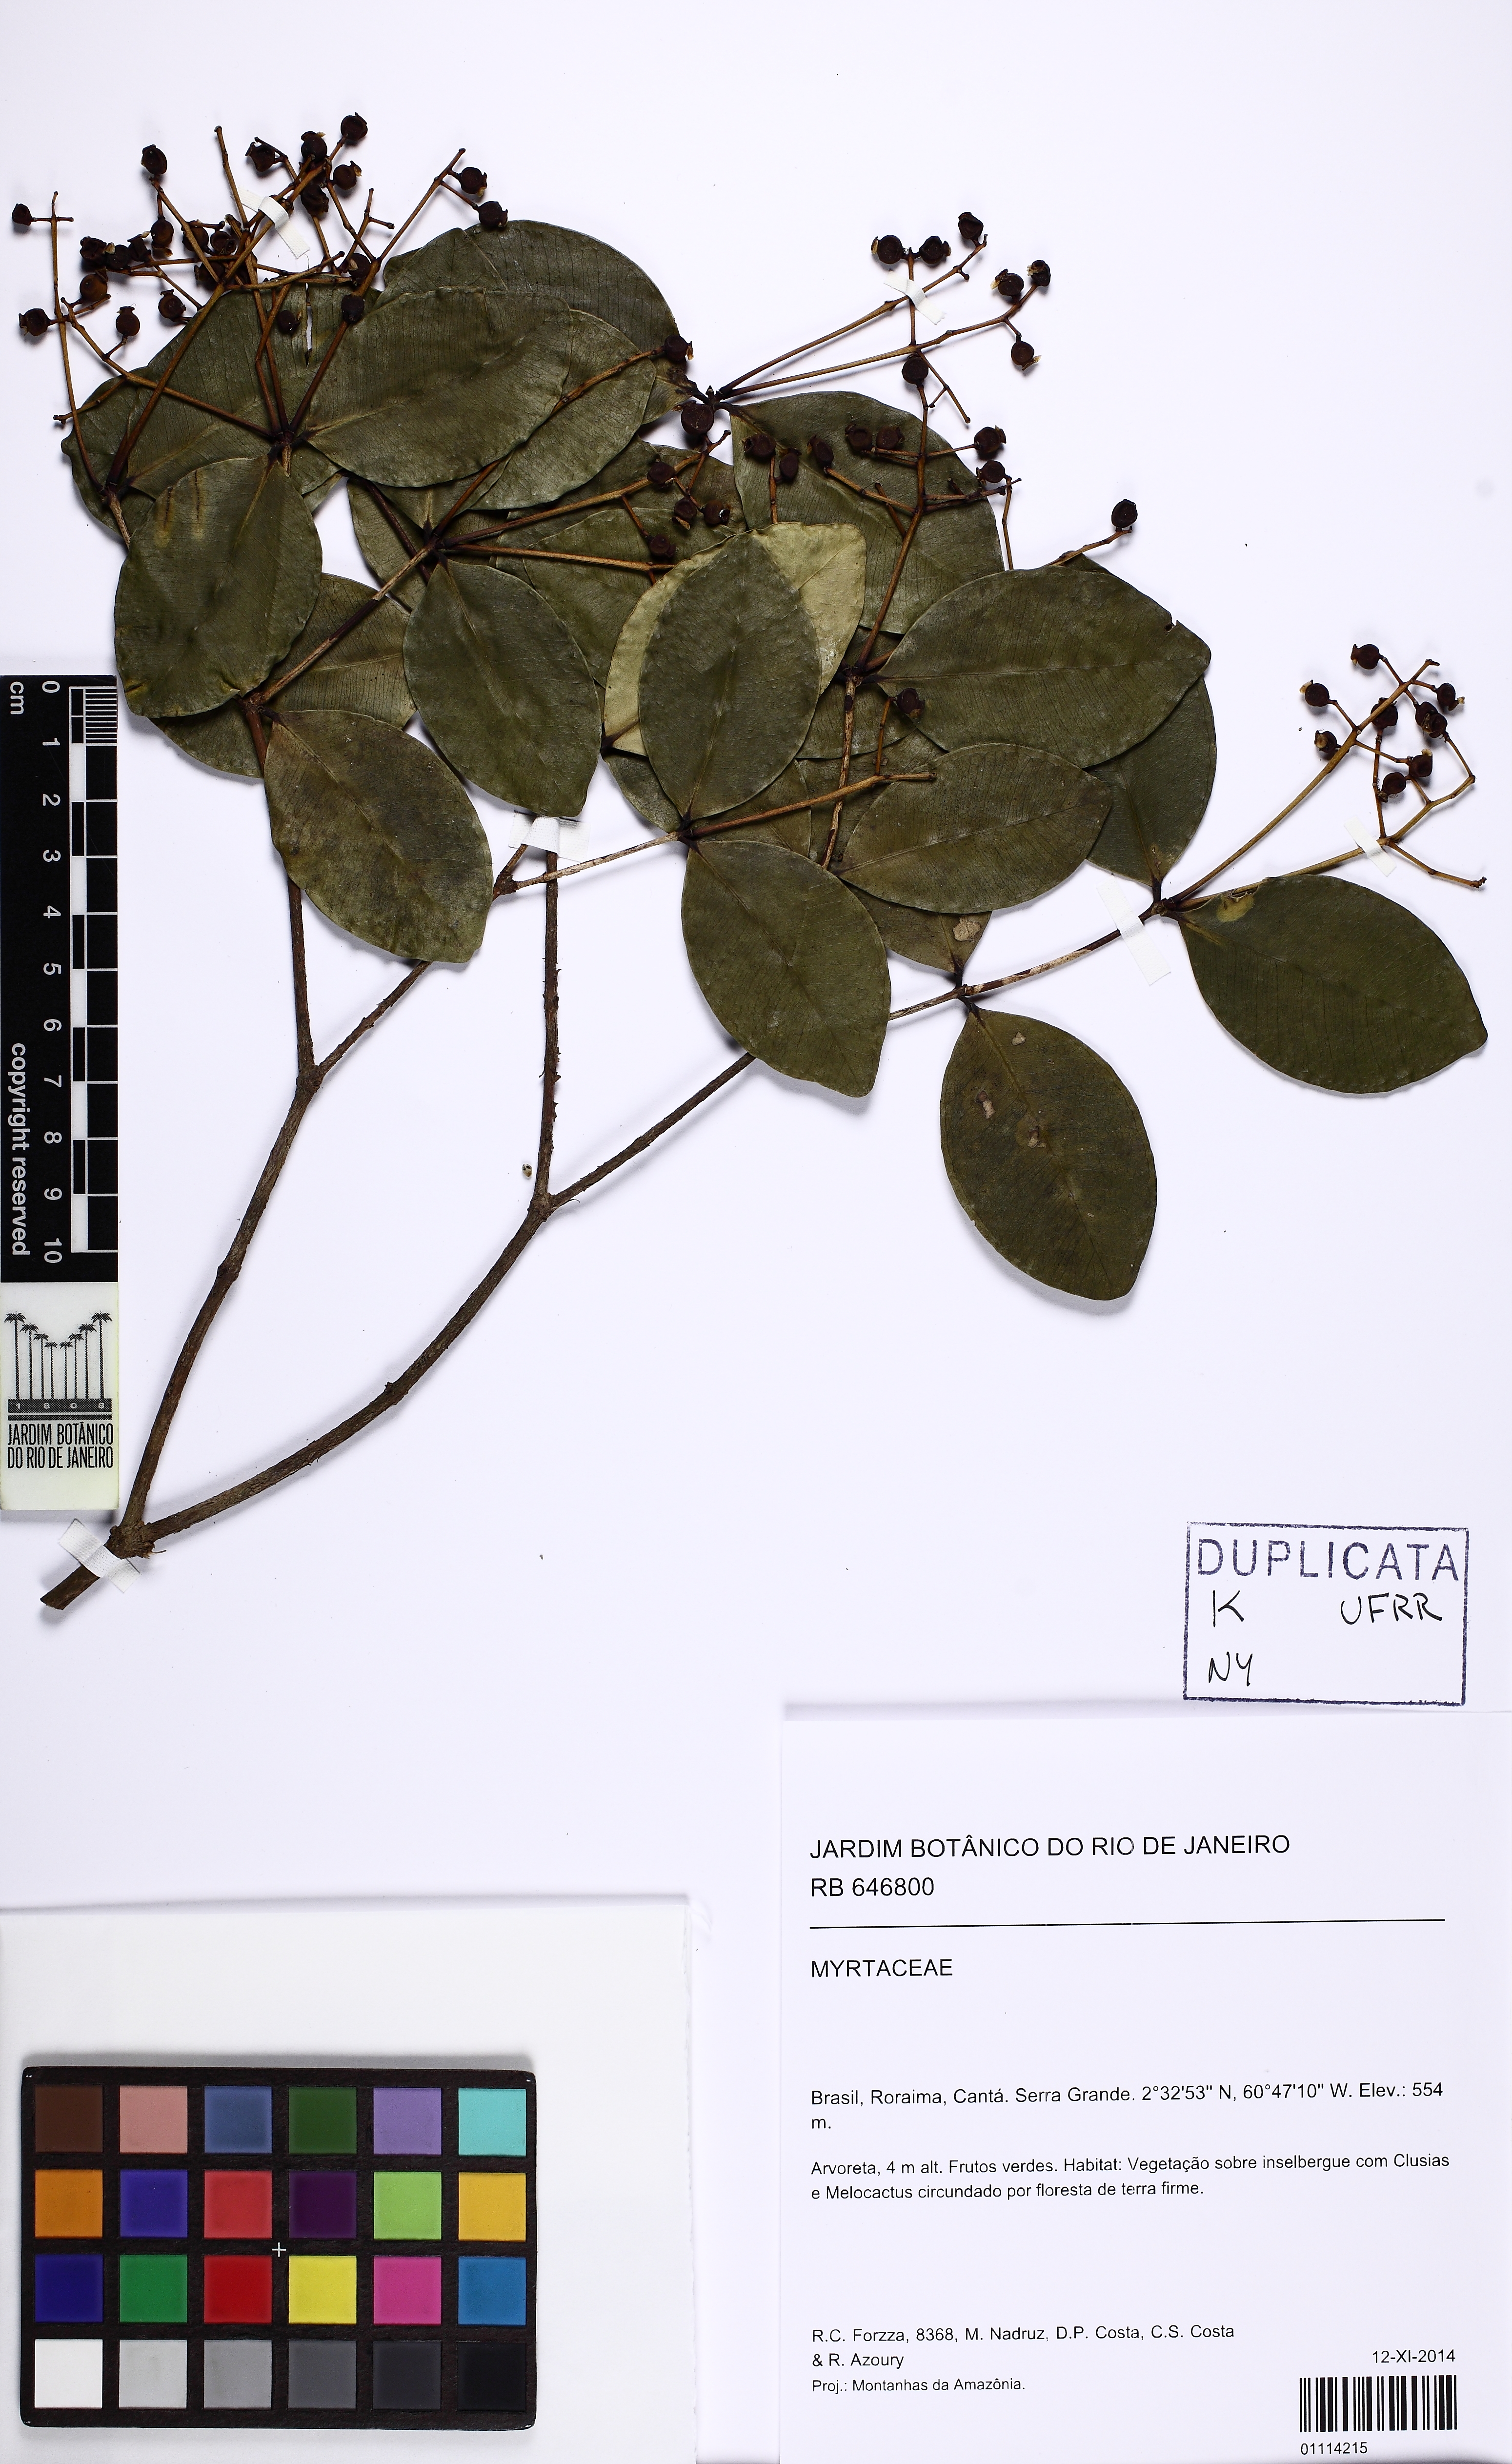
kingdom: Plantae
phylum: Tracheophyta
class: Magnoliopsida
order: Myrtales
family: Myrtaceae
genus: Myrcia
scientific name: Myrcia neolucida
